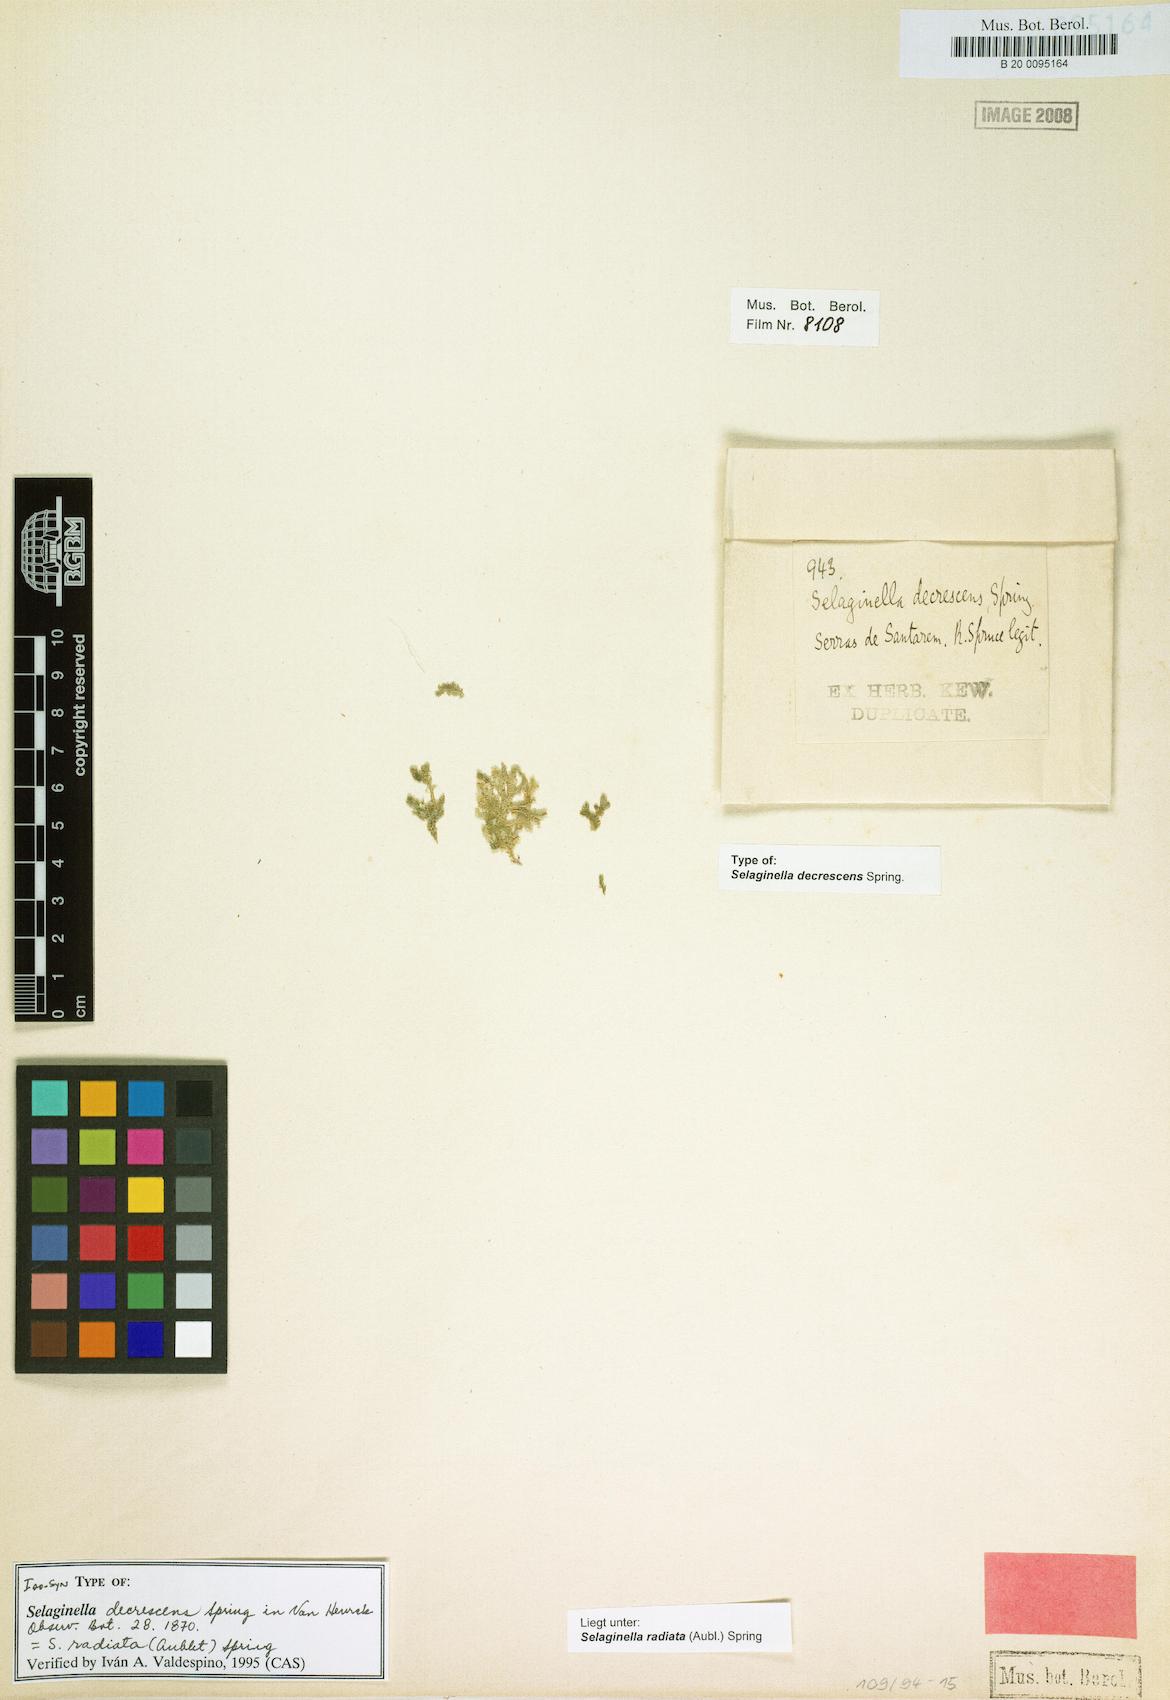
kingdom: Plantae
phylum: Tracheophyta
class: Lycopodiopsida
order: Selaginellales
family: Selaginellaceae
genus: Selaginella
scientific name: Selaginella radiata
